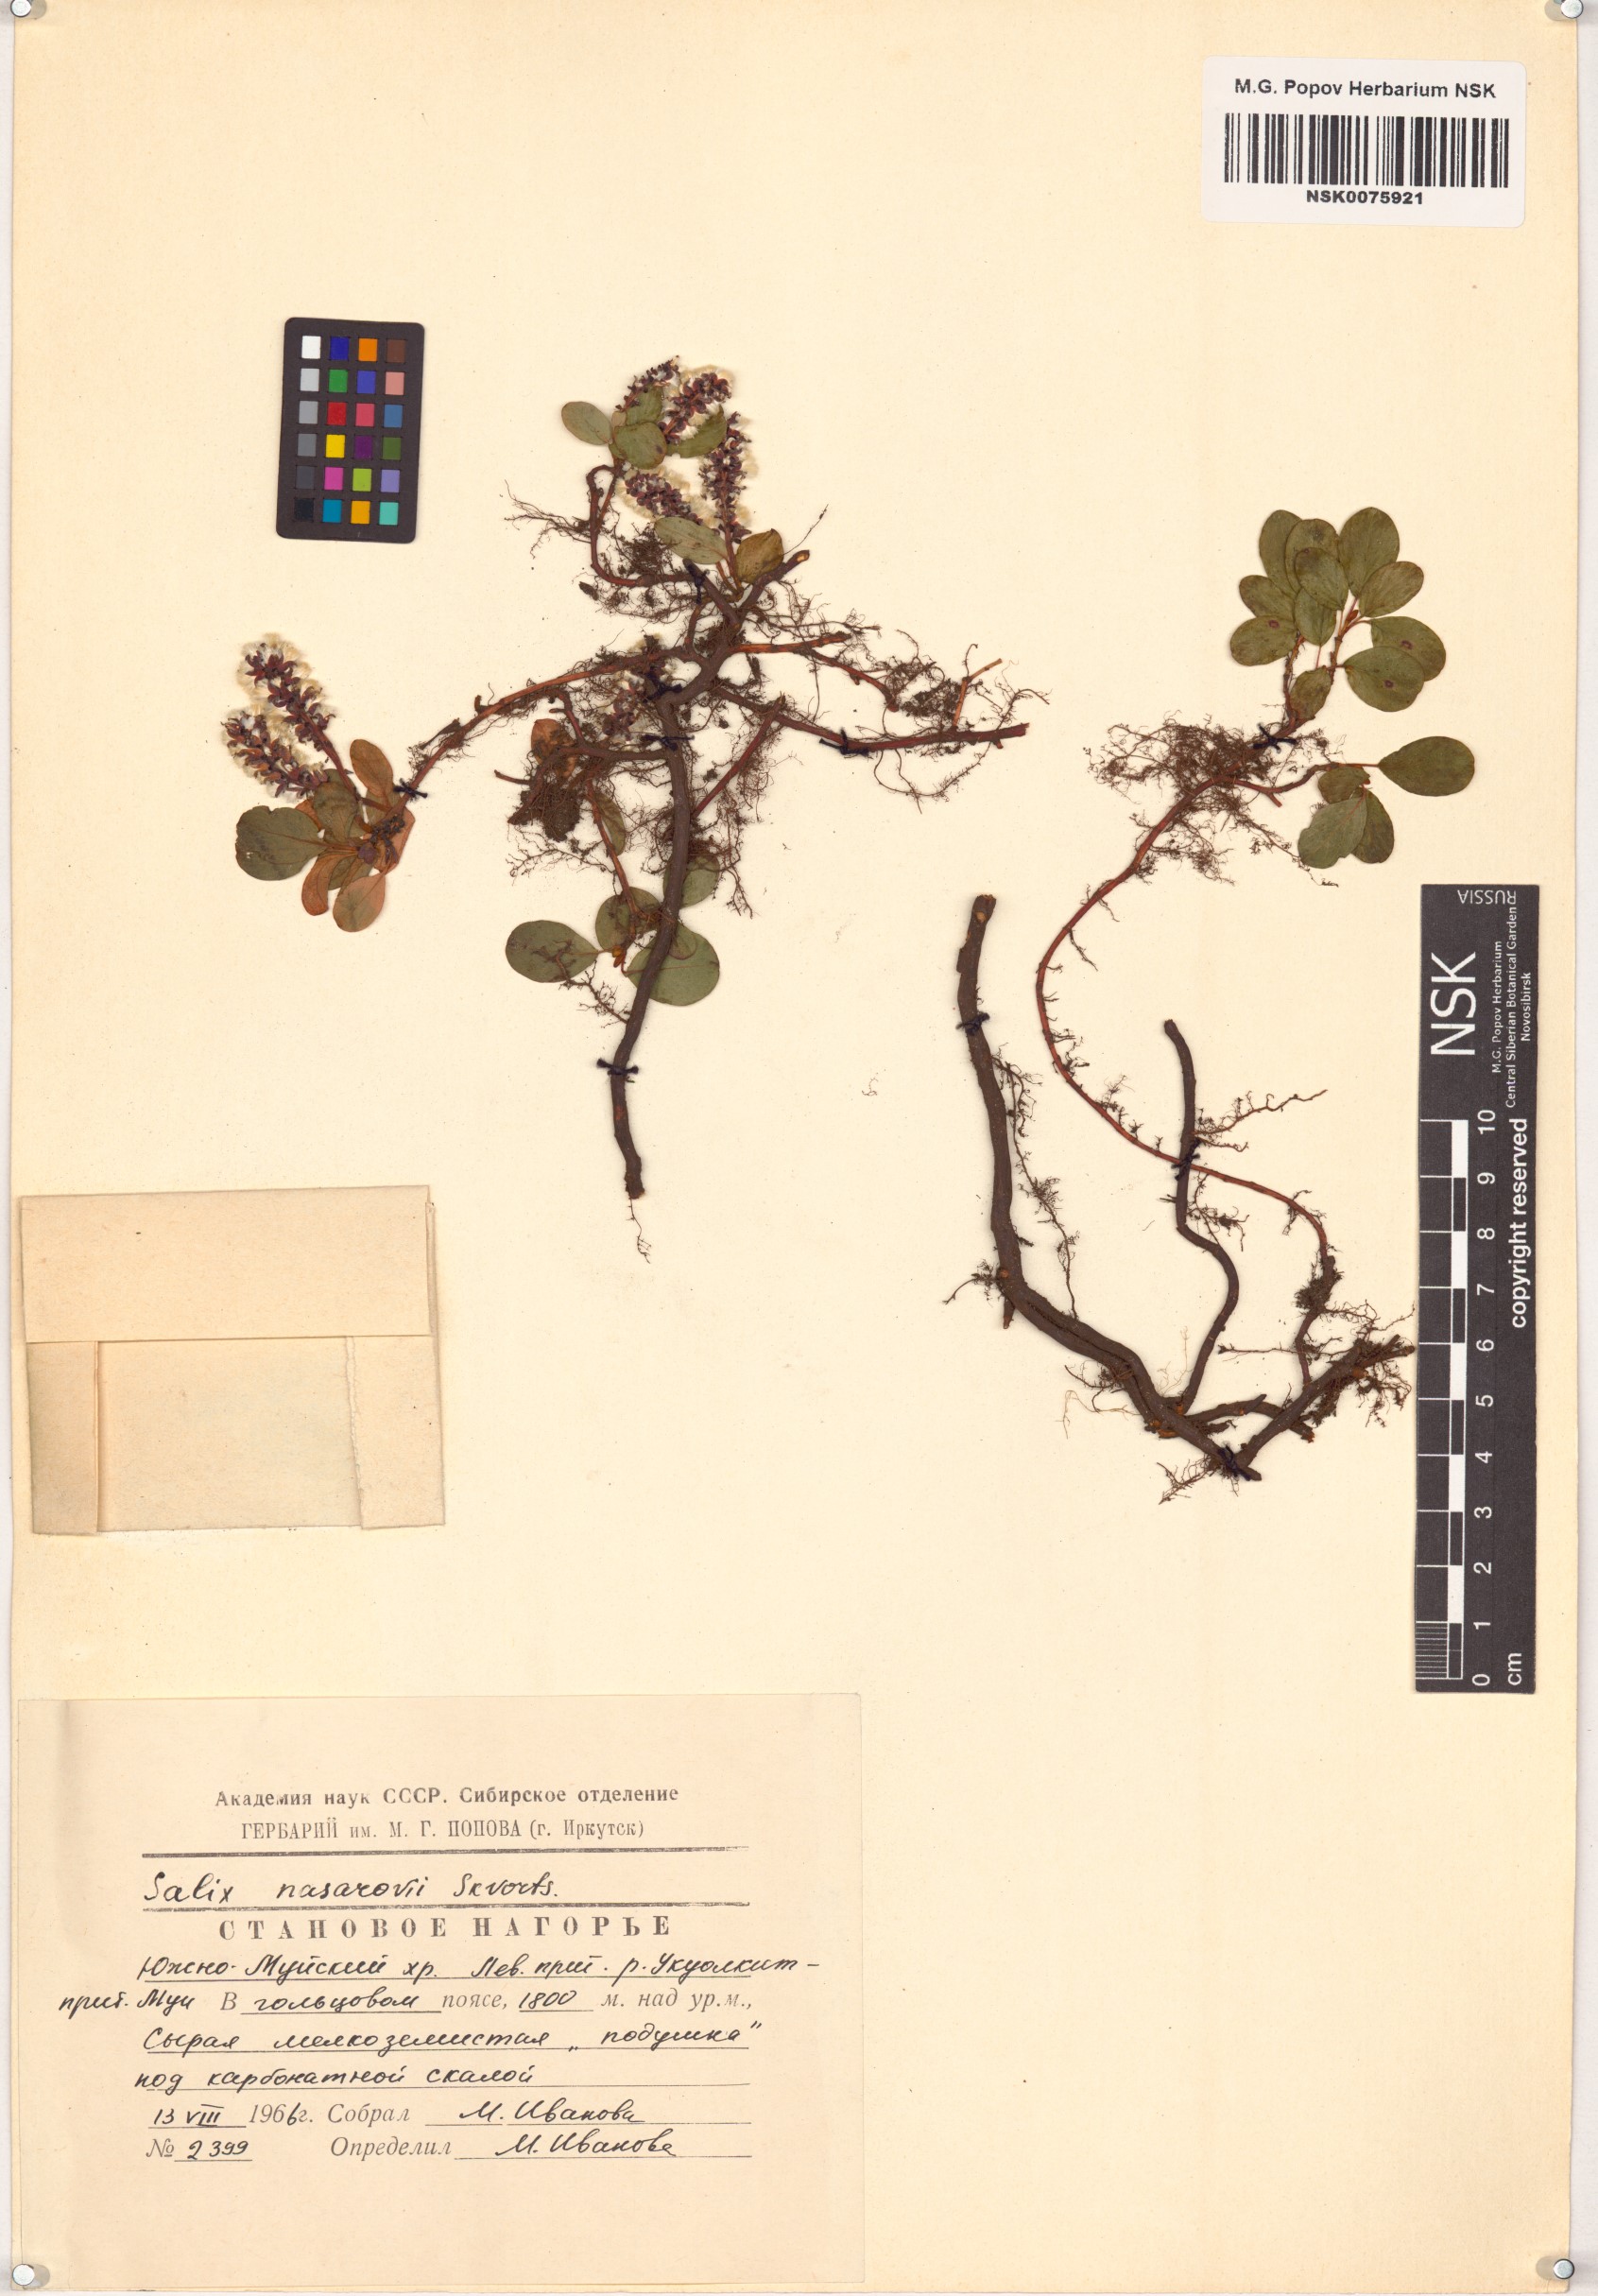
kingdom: Plantae
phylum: Tracheophyta
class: Magnoliopsida
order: Malpighiales
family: Salicaceae
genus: Salix
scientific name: Salix nasarovii
